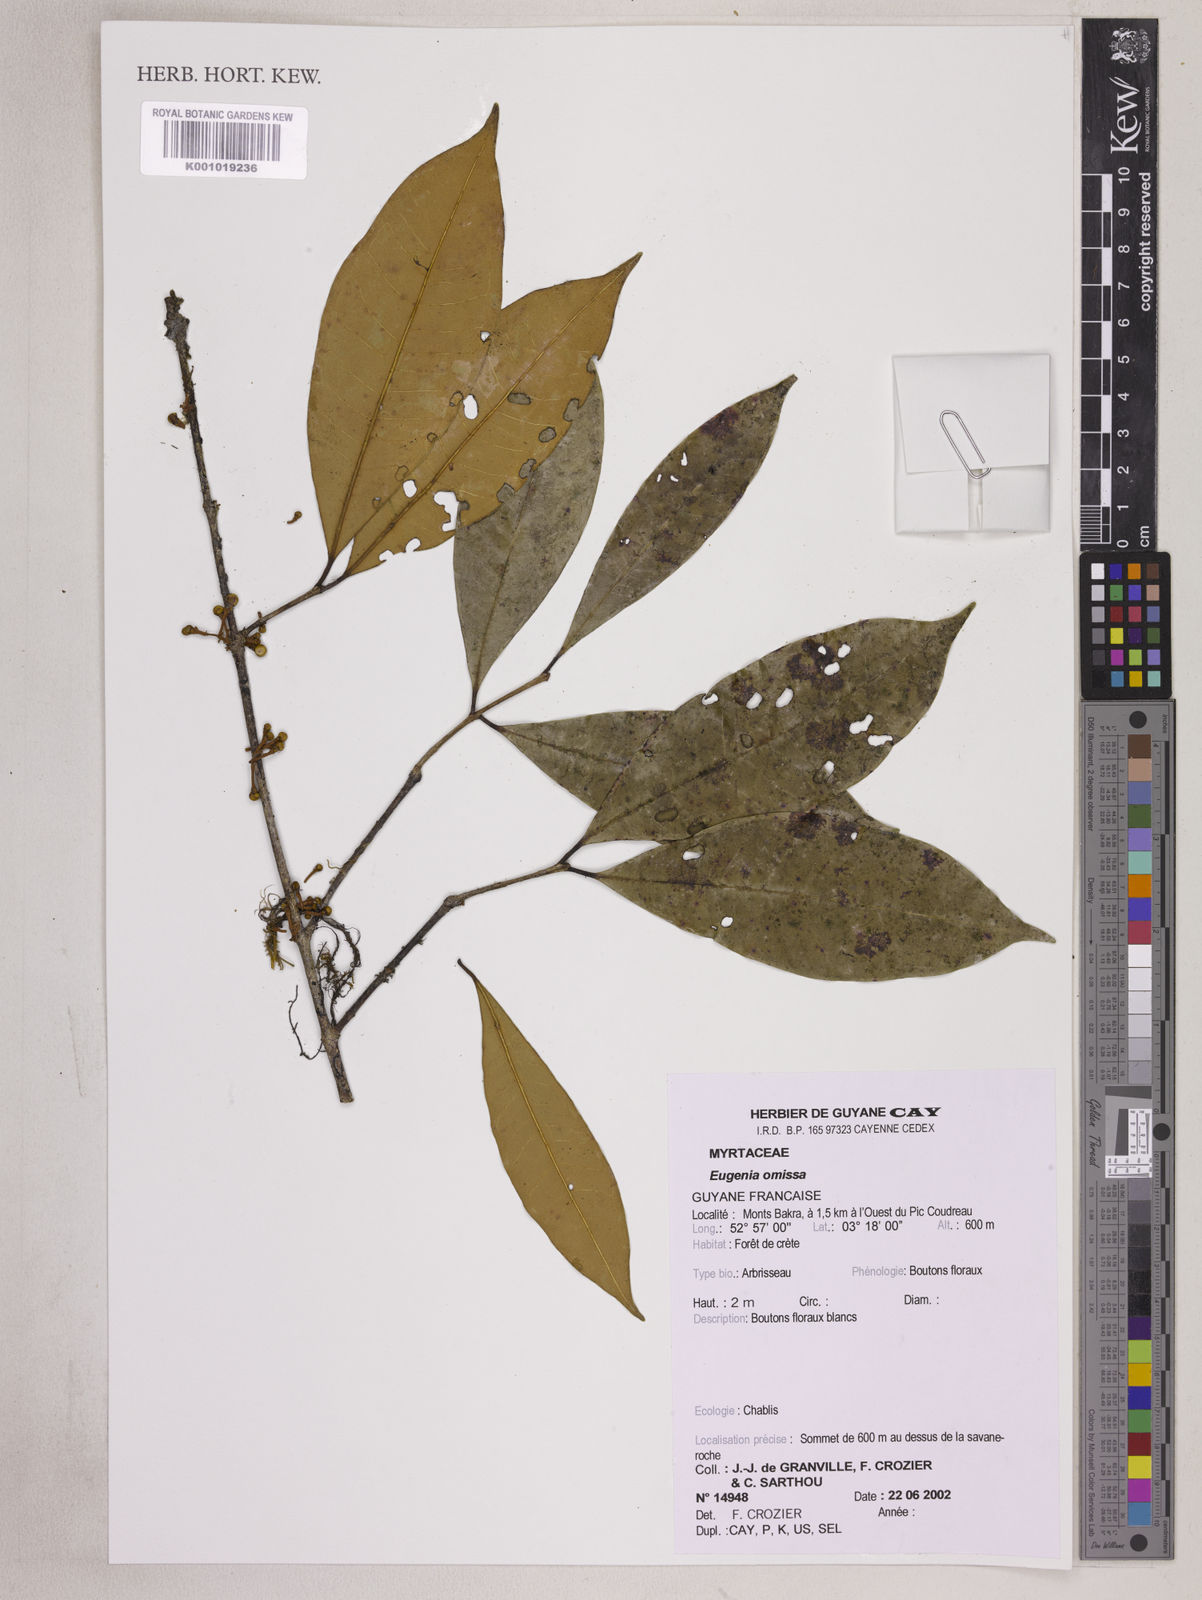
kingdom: Plantae
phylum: Tracheophyta
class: Magnoliopsida
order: Myrtales
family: Myrtaceae
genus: Eugenia
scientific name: Eugenia omissa
